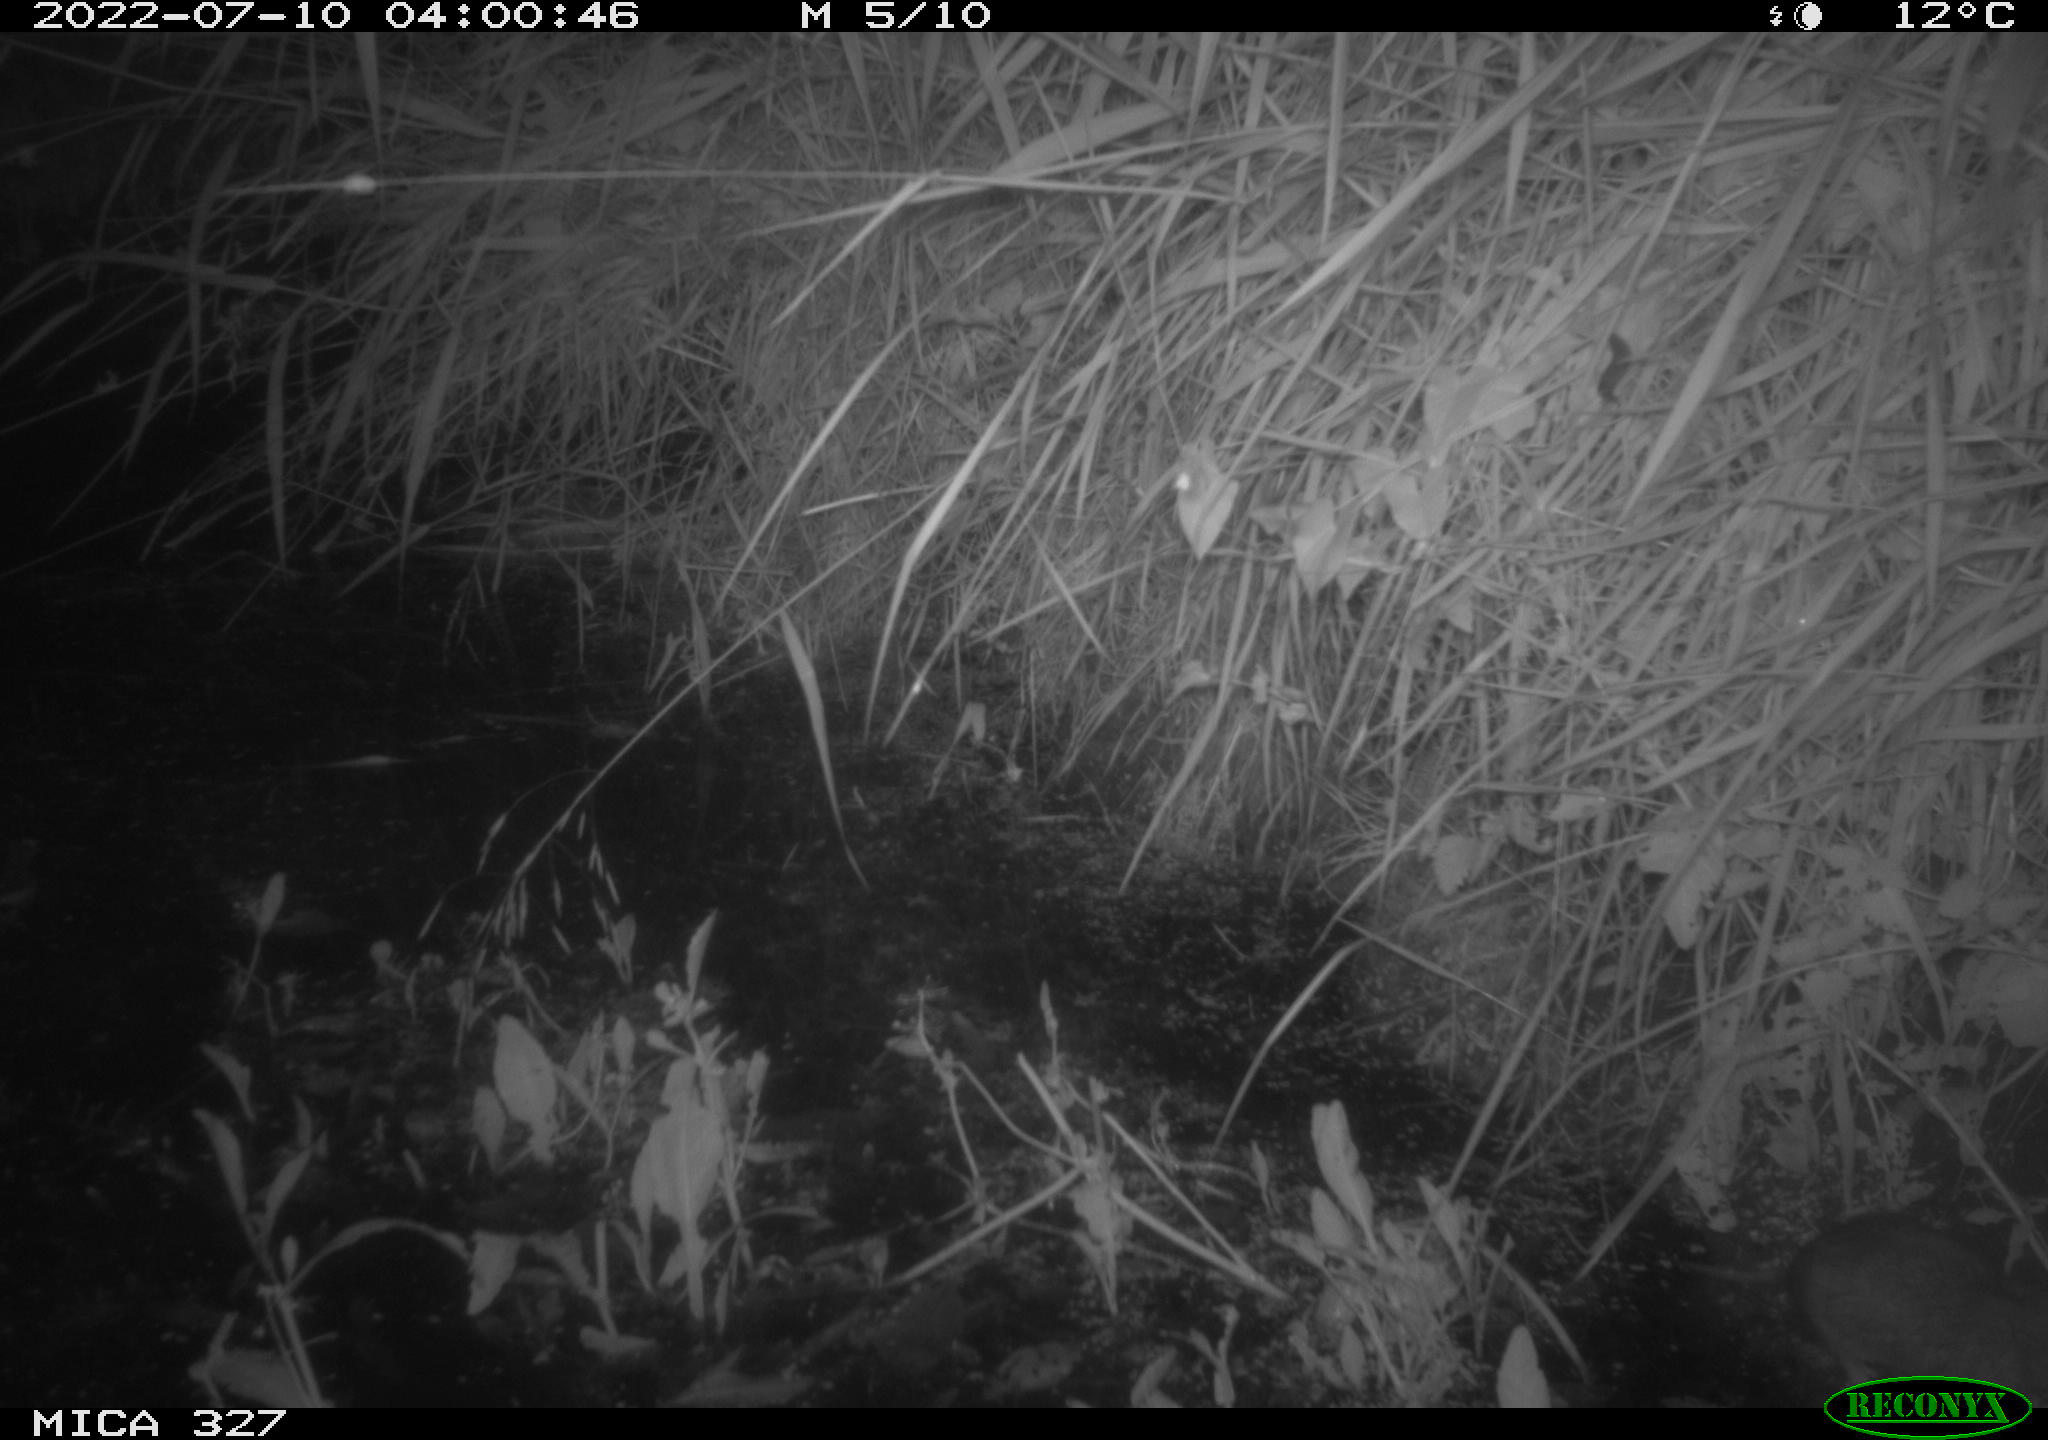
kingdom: Animalia
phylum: Chordata
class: Mammalia
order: Rodentia
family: Muridae
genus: Rattus
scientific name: Rattus norvegicus
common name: Brown rat
